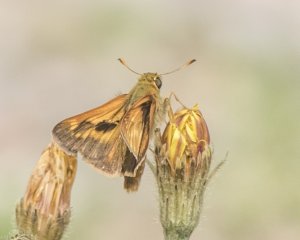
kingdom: Animalia
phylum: Arthropoda
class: Insecta
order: Lepidoptera
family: Hesperiidae
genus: Polites
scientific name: Polites
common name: Long Dash Skipper
